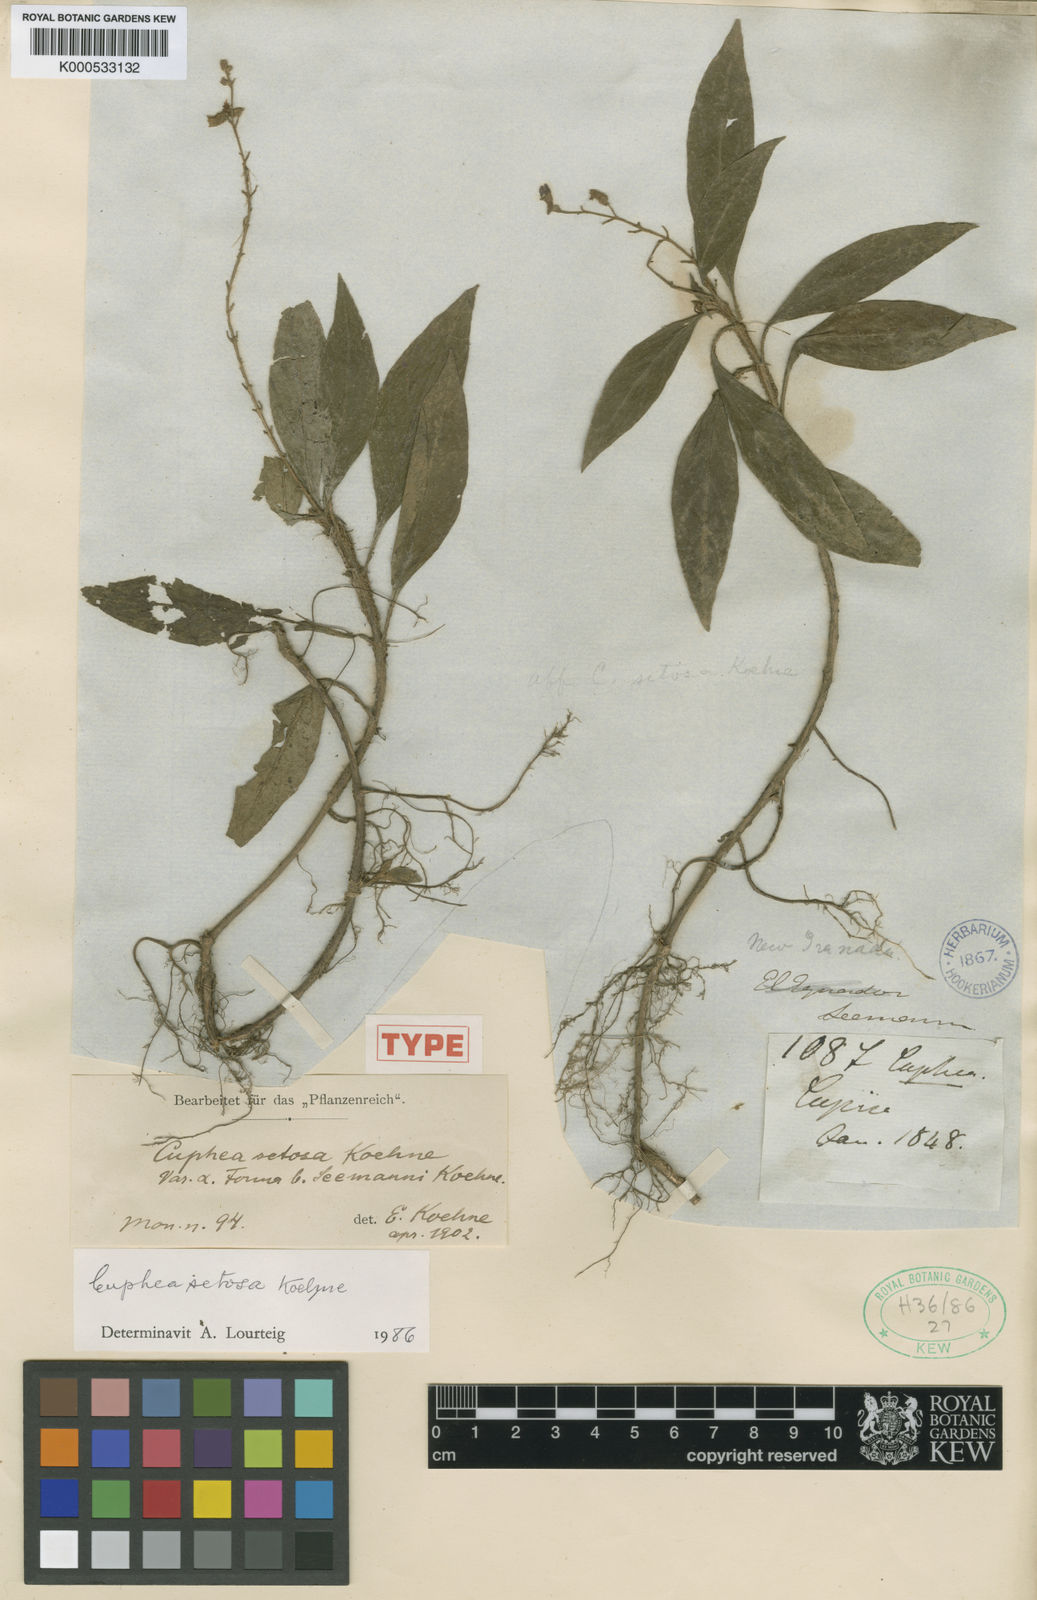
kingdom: Plantae
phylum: Tracheophyta
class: Magnoliopsida
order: Myrtales
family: Lythraceae
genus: Cuphea
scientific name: Cuphea setosa
